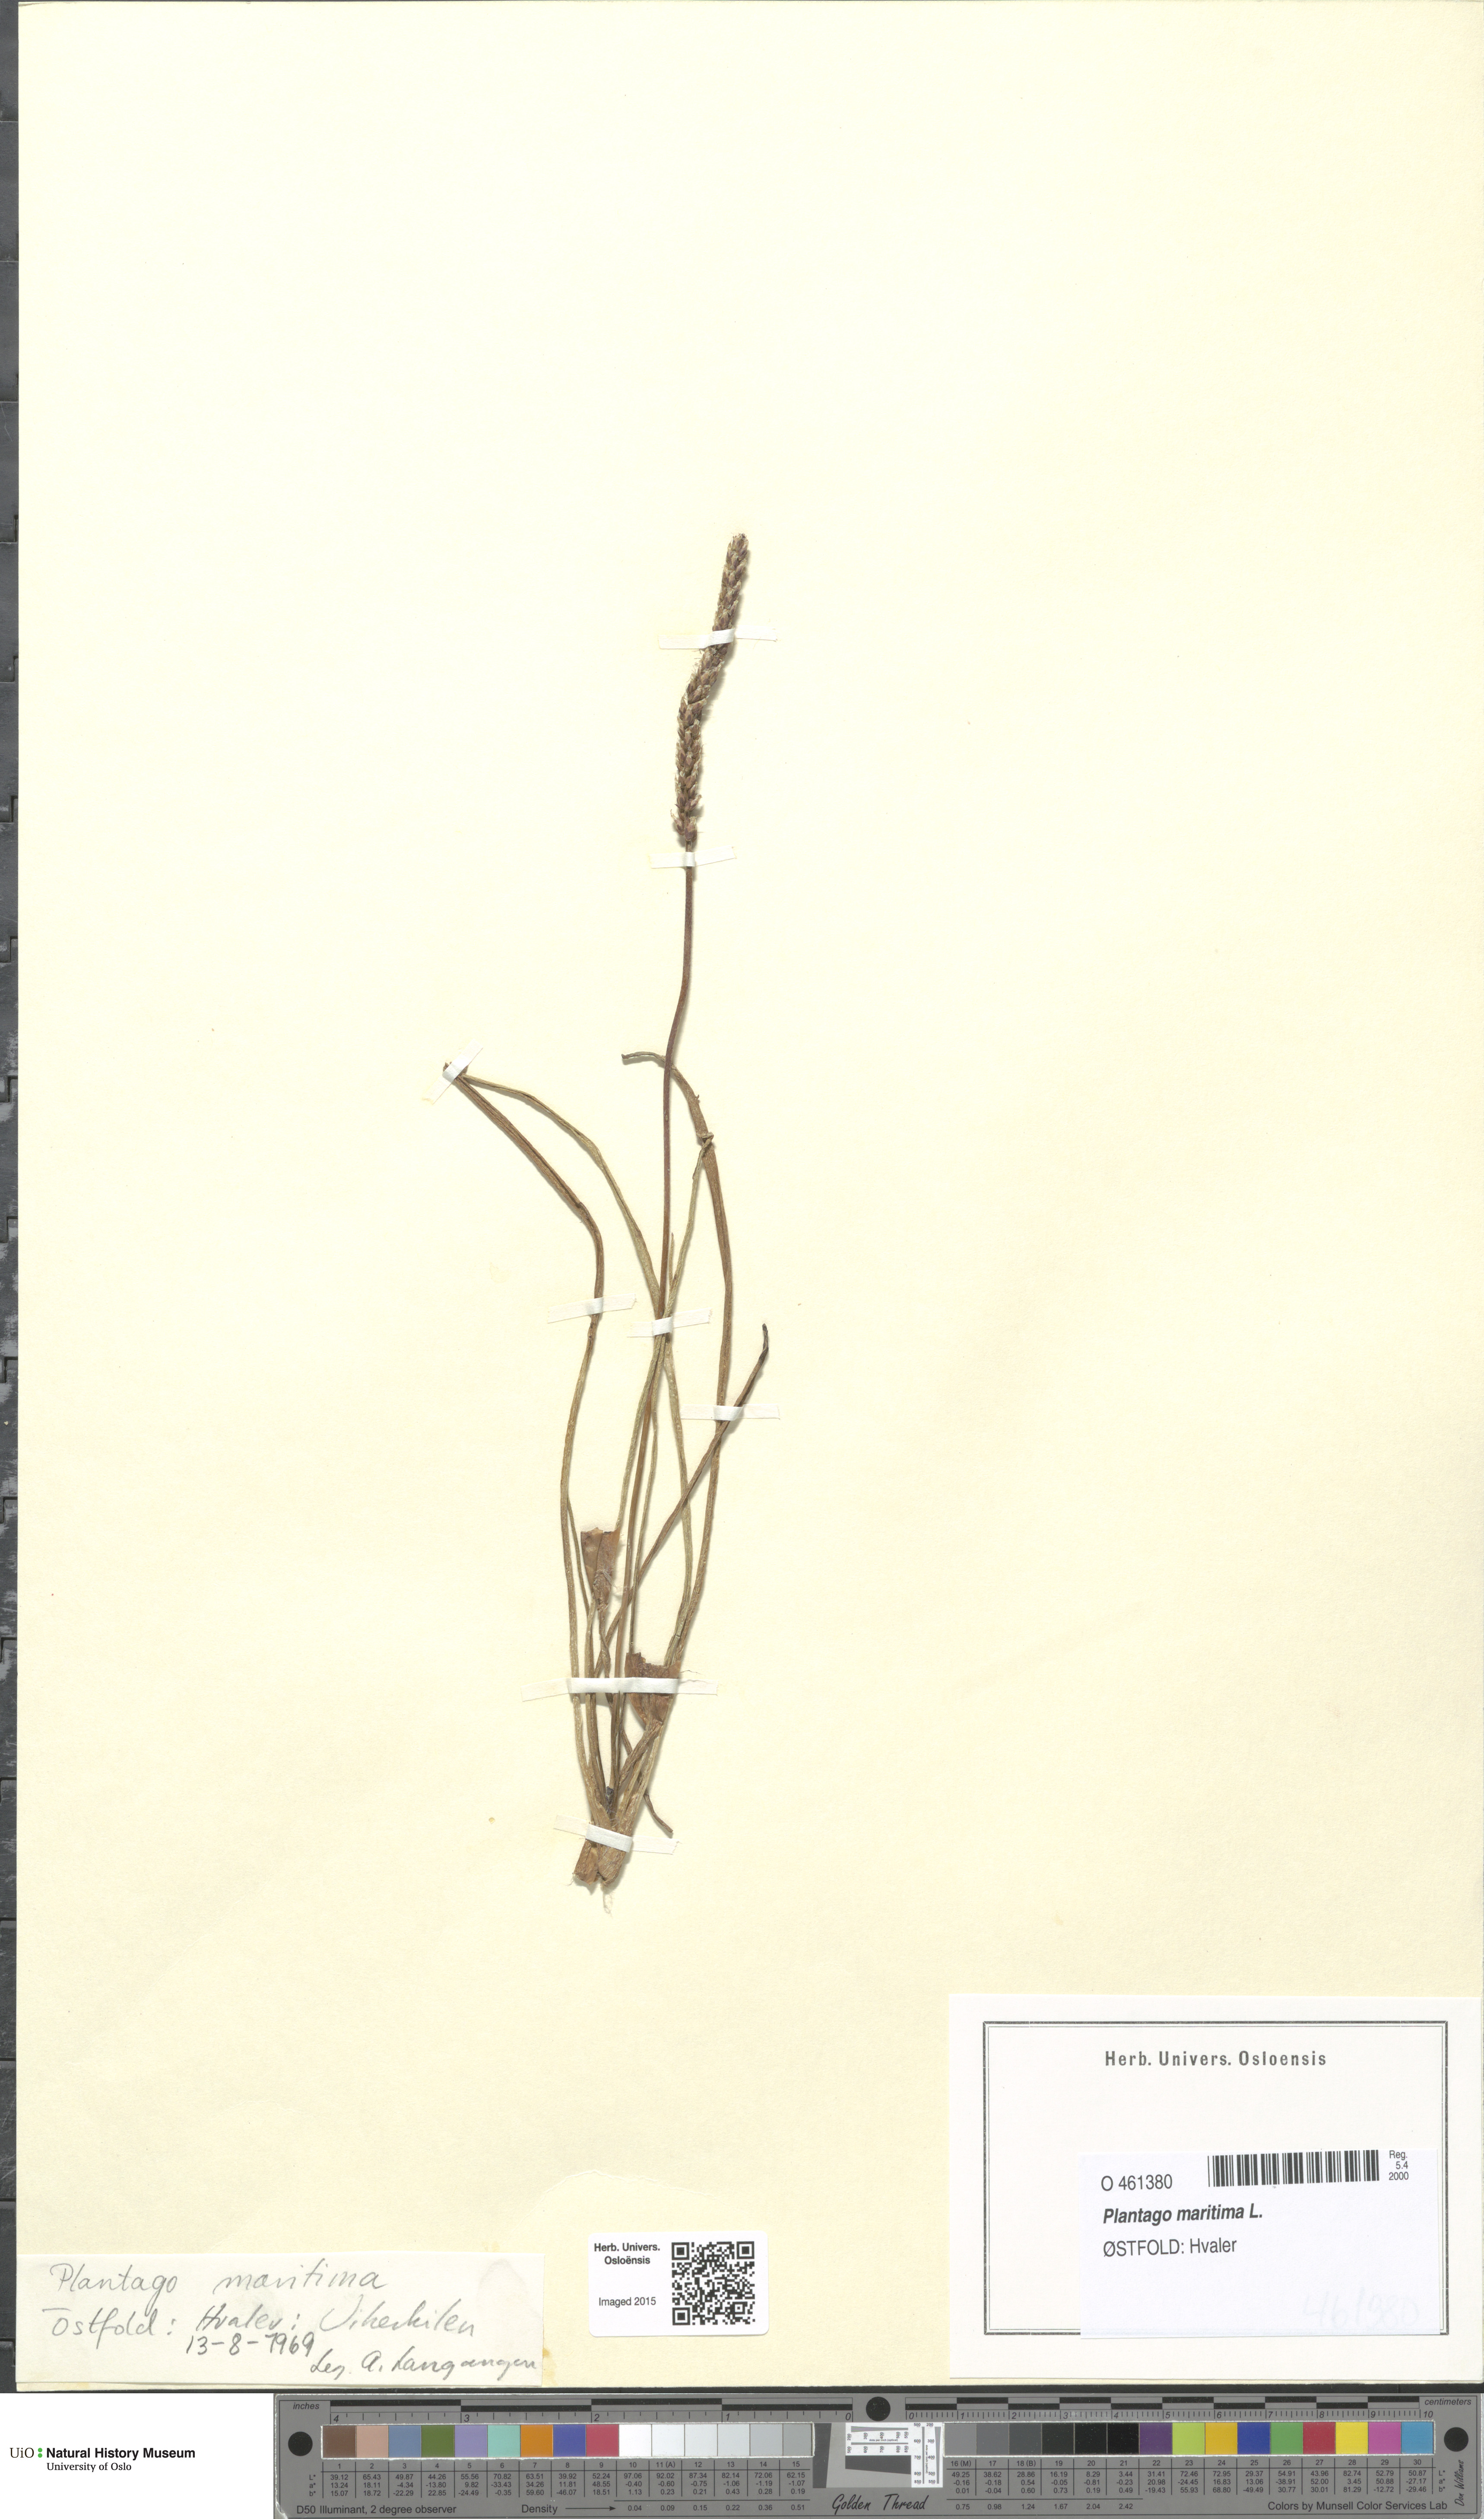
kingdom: Plantae
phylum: Tracheophyta
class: Magnoliopsida
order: Lamiales
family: Plantaginaceae
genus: Plantago
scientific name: Plantago maritima
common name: Sea plantain
